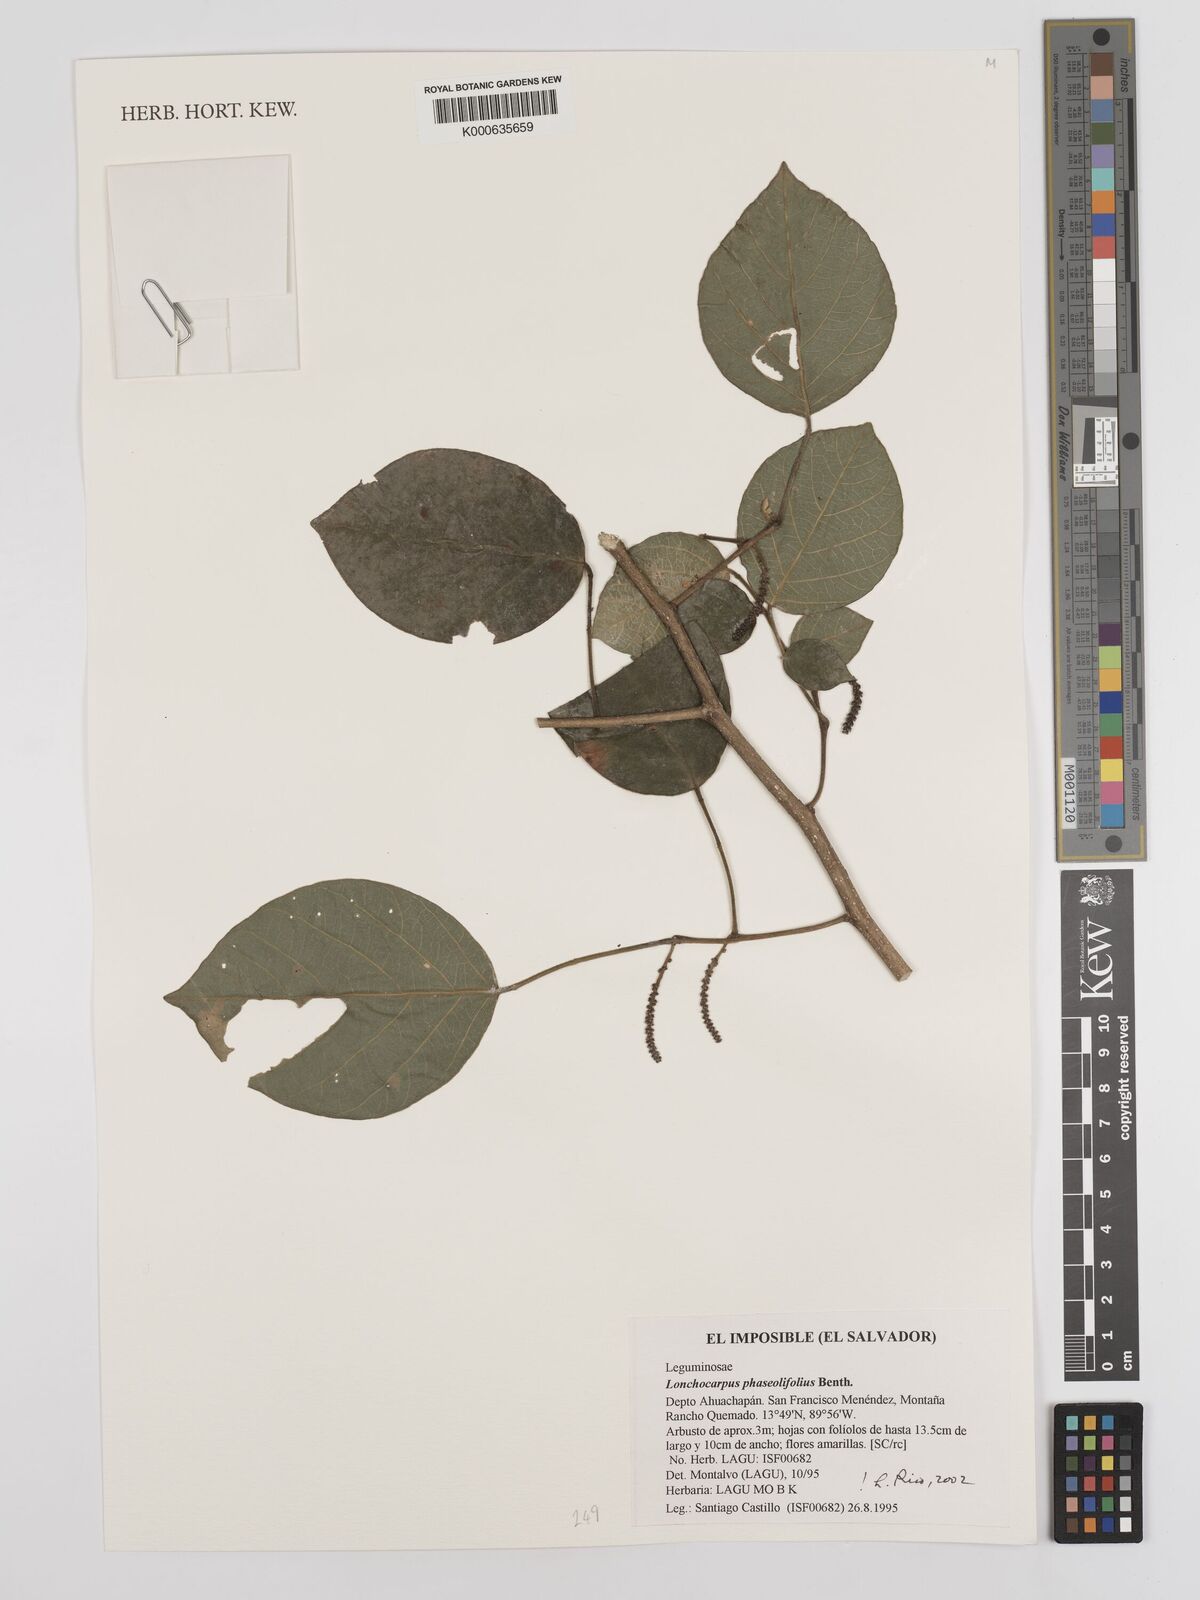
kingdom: Plantae
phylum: Tracheophyta
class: Magnoliopsida
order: Fabales
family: Fabaceae
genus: Lonchocarpus
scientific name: Lonchocarpus phaseolifolius
